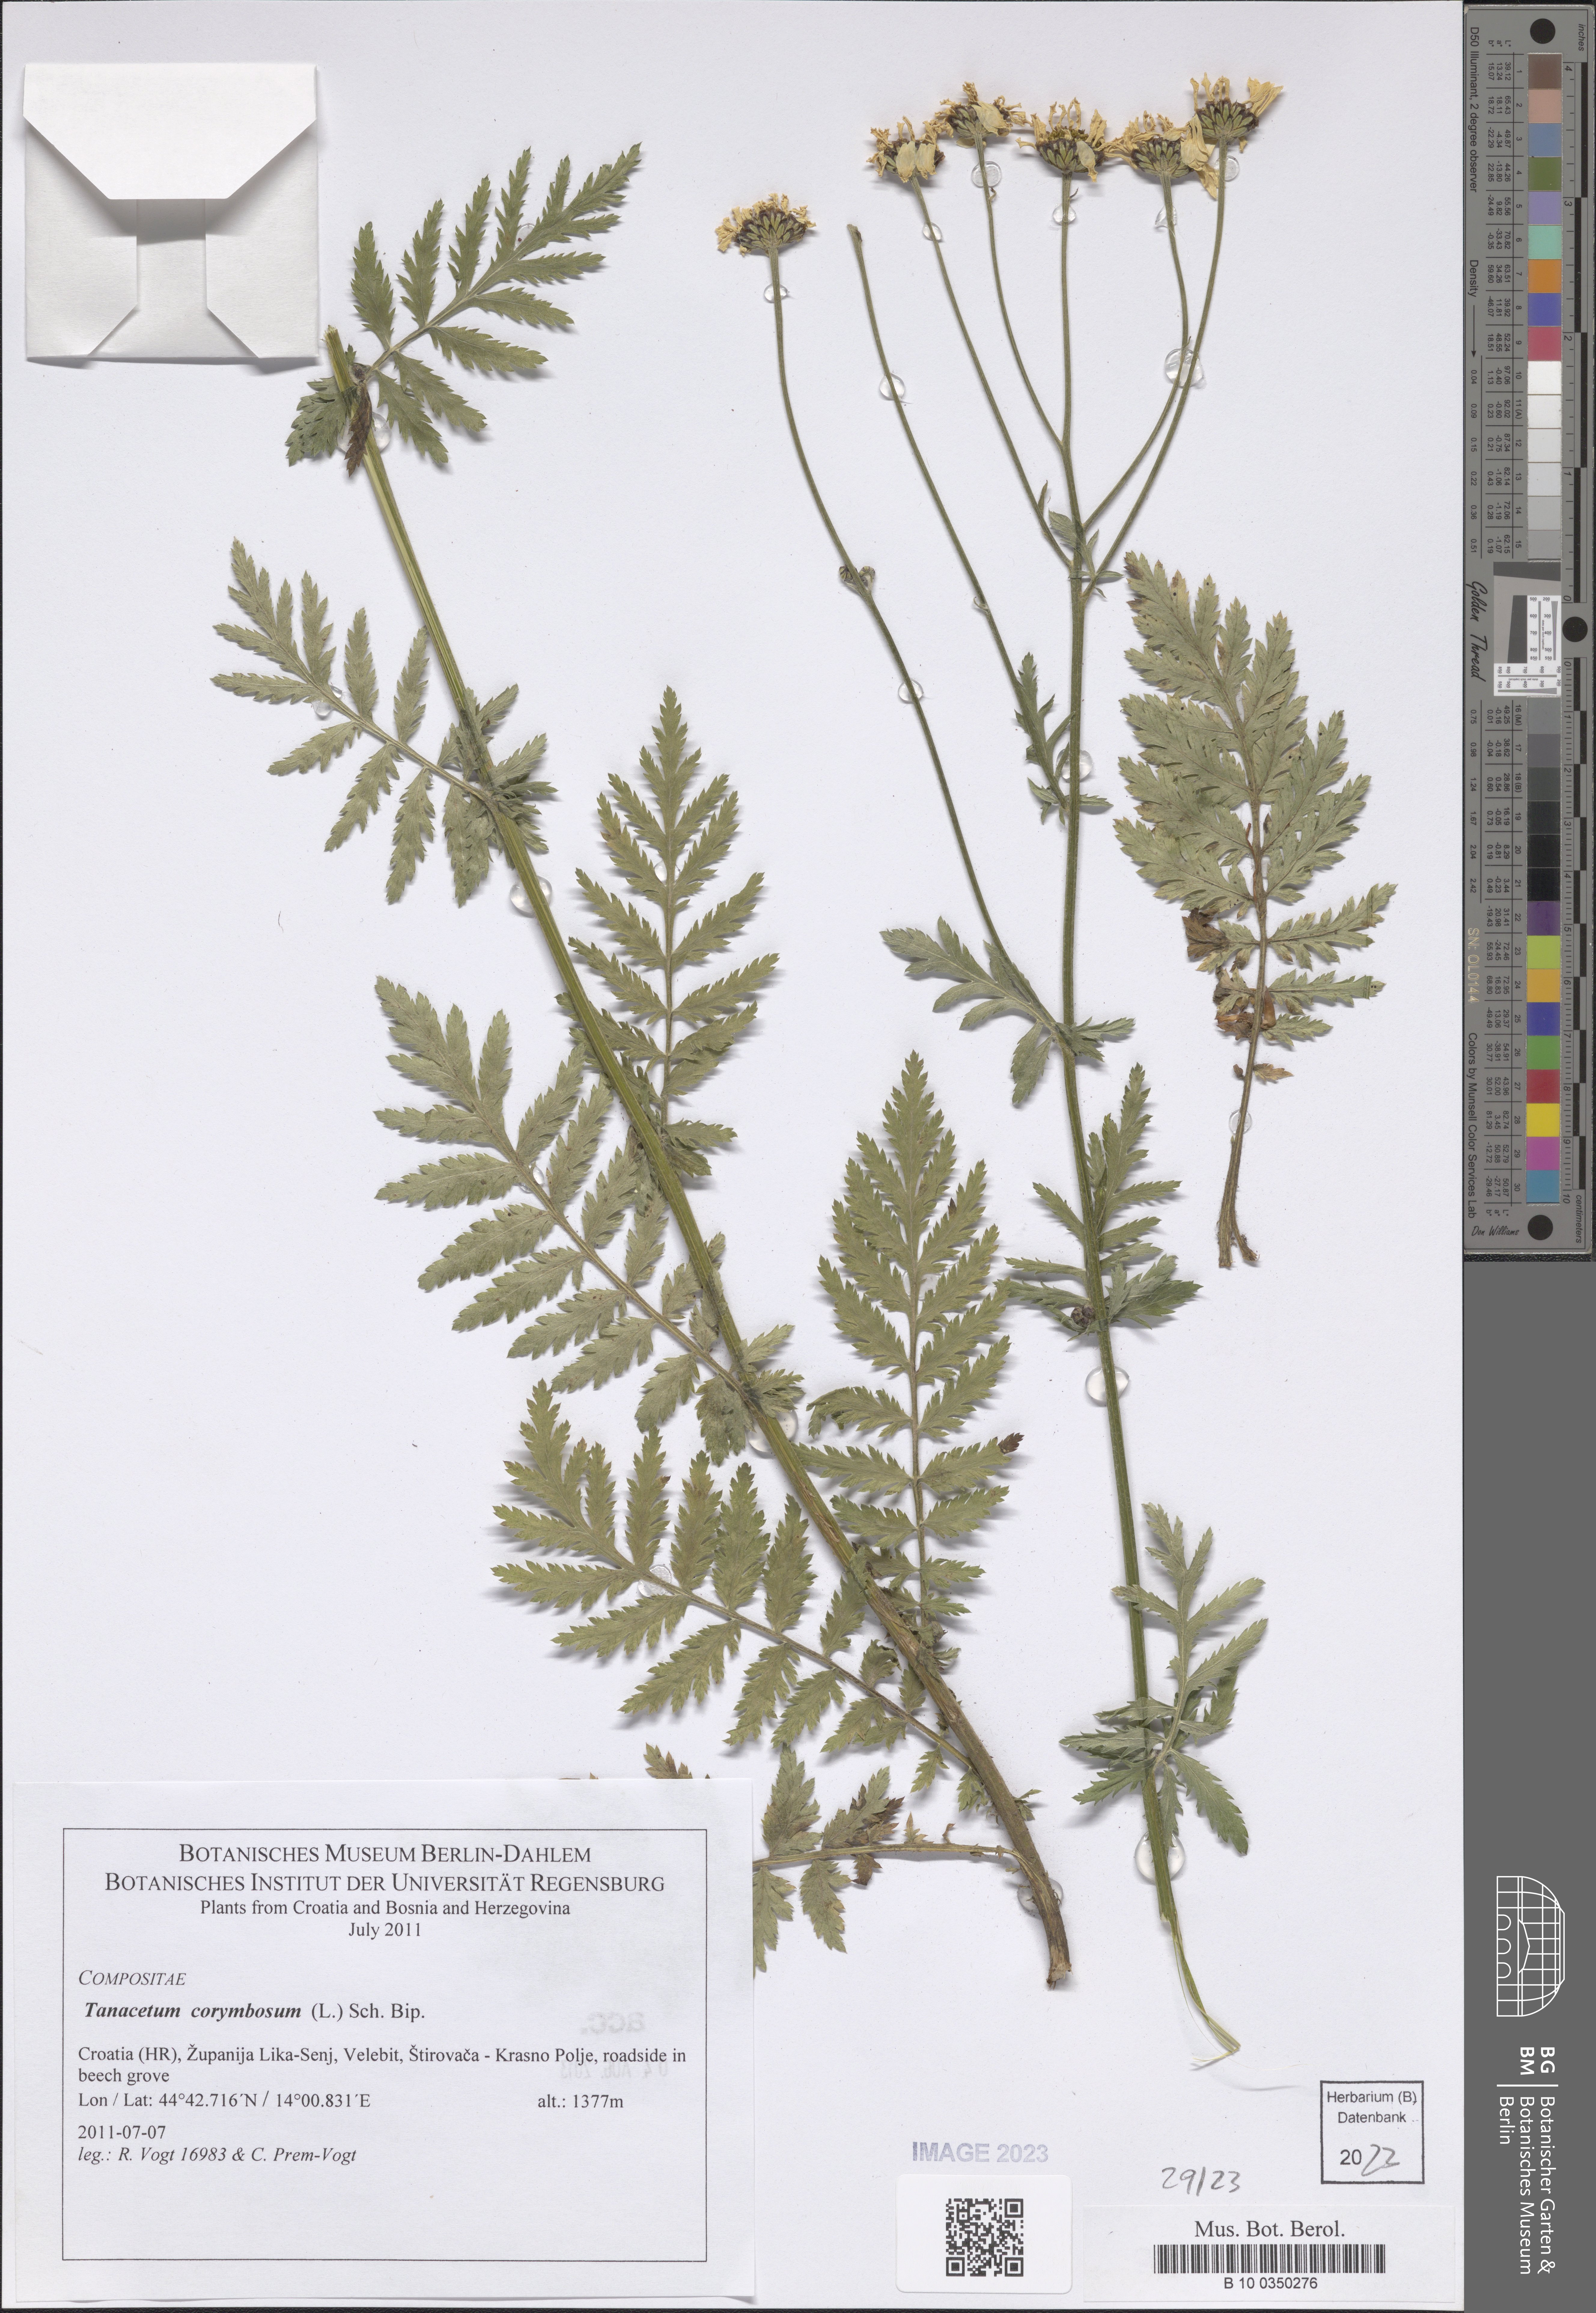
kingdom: Plantae
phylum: Tracheophyta
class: Magnoliopsida
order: Asterales
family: Asteraceae
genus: Tanacetum
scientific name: Tanacetum corymbosum
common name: Scentless feverfew
